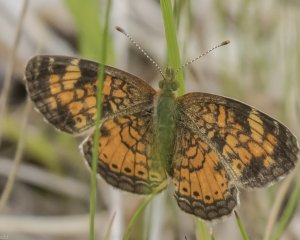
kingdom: Animalia
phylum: Arthropoda
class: Insecta
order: Lepidoptera
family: Nymphalidae
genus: Phyciodes
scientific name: Phyciodes tharos
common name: Northern Crescent
